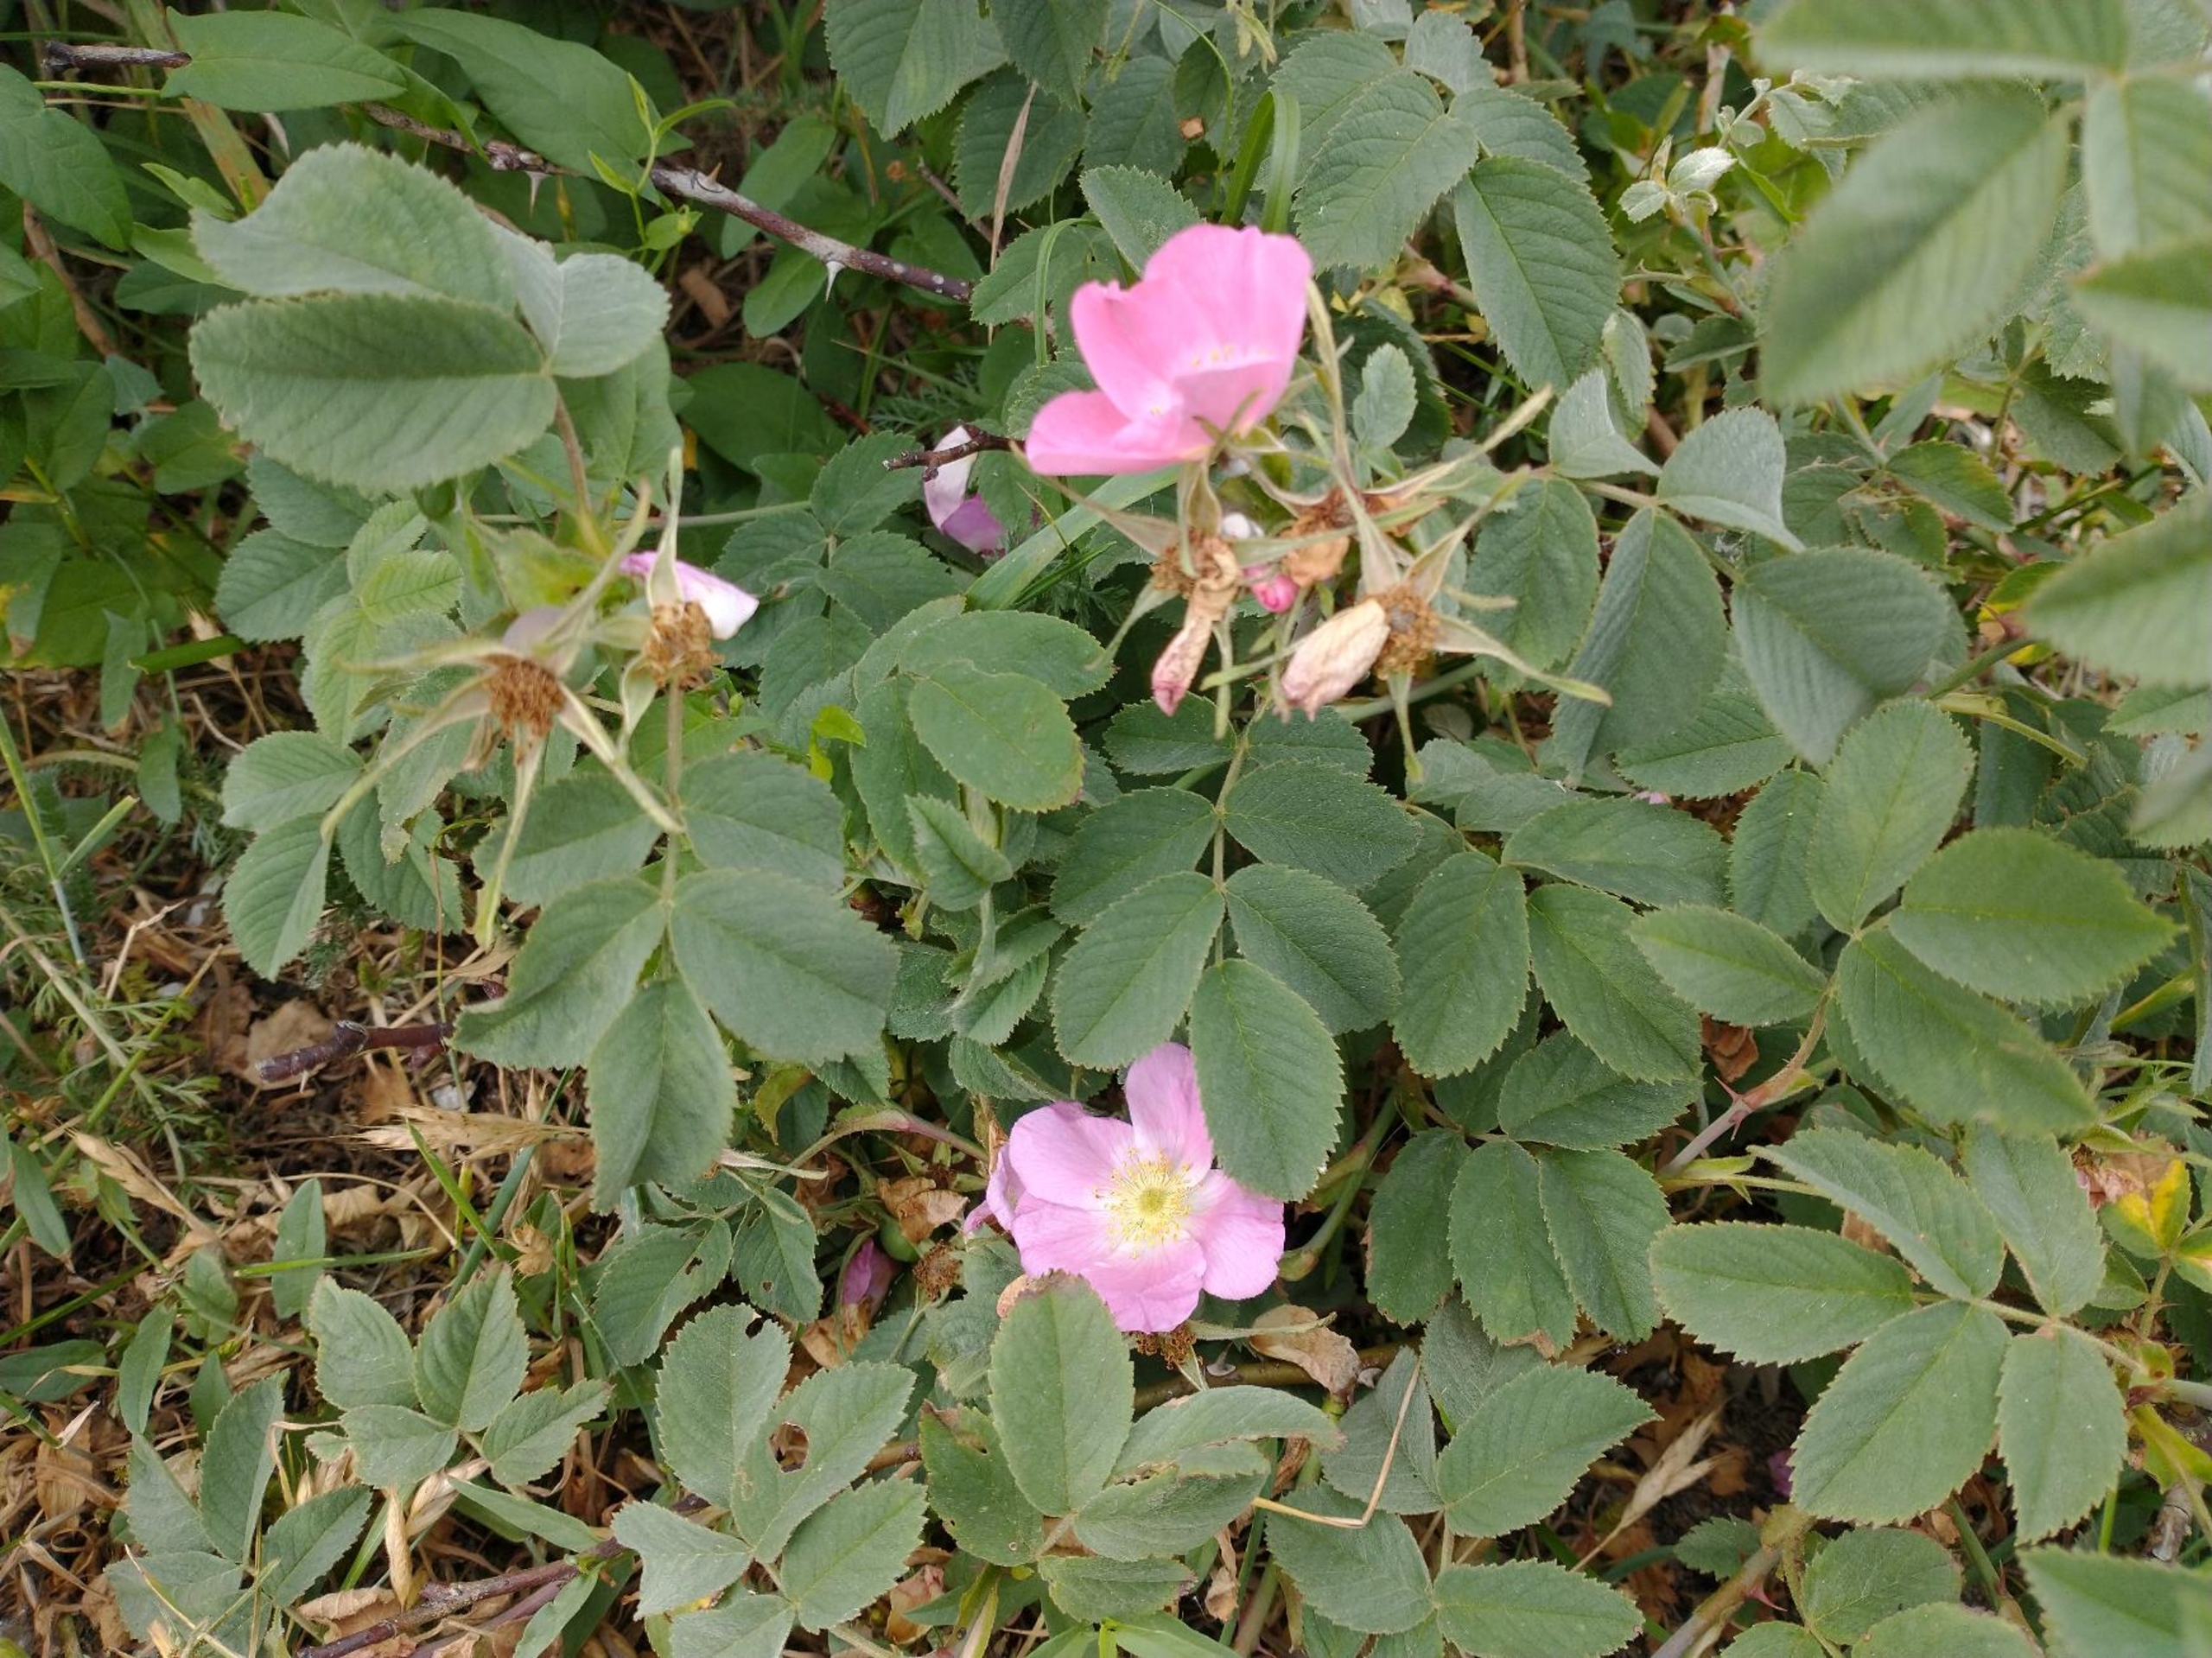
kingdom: Plantae
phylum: Tracheophyta
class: Magnoliopsida
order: Rosales
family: Rosaceae
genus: Rosa
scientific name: Rosa mollis
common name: Blød filt-rose
